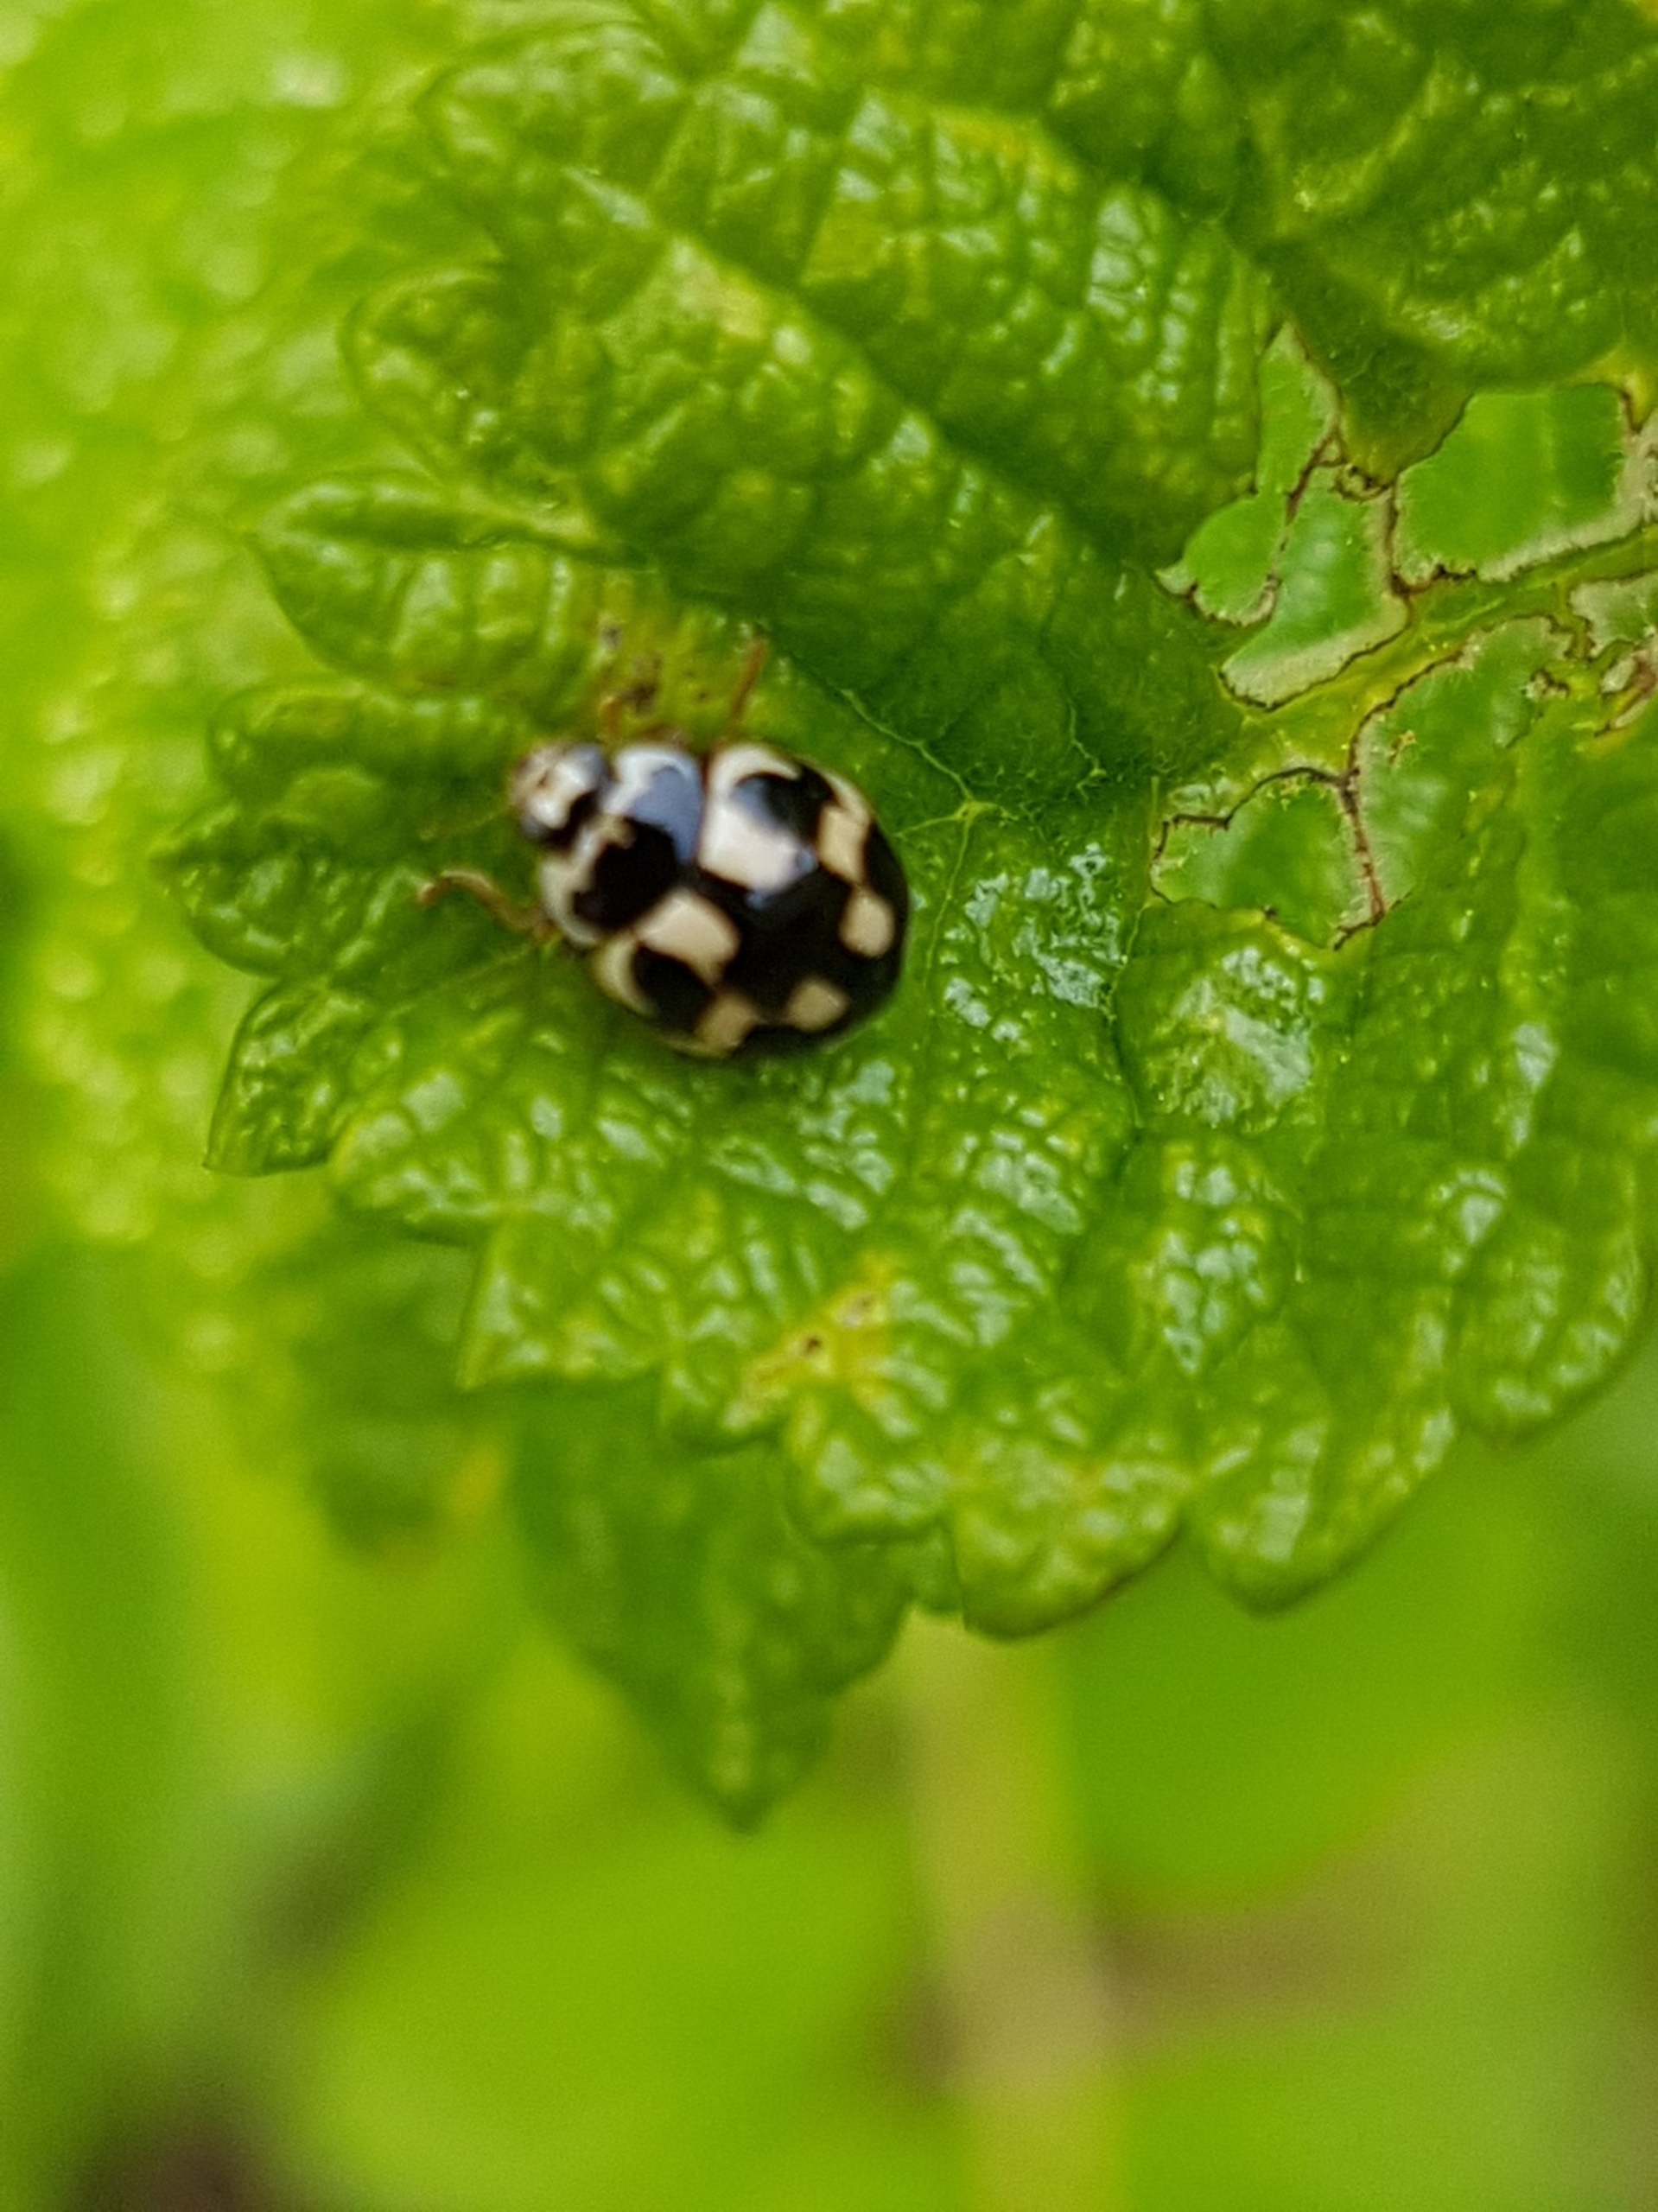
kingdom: Animalia
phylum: Arthropoda
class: Insecta
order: Coleoptera
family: Coccinellidae
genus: Propylaea
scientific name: Propylaea quatuordecimpunctata
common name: Skakbræt
